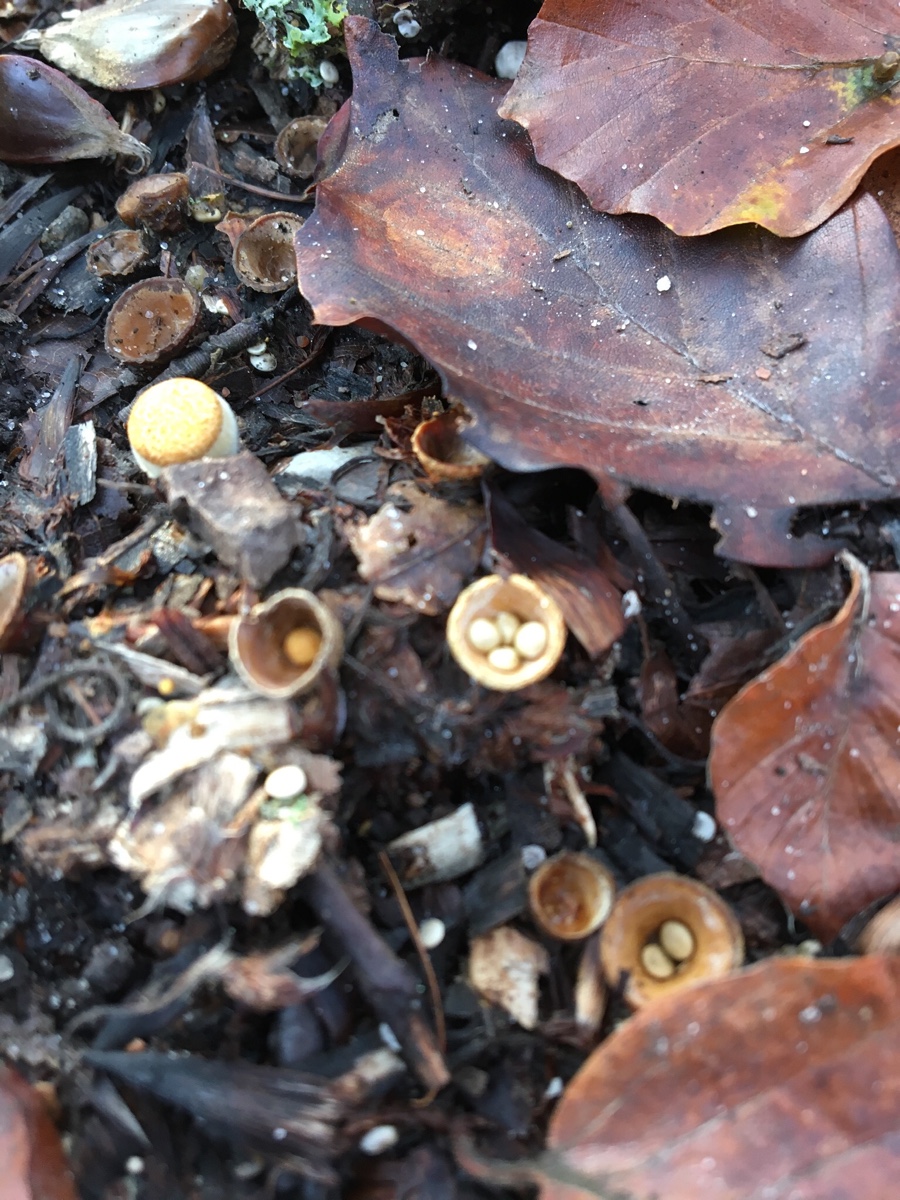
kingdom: Fungi
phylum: Basidiomycota
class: Agaricomycetes
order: Agaricales
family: Nidulariaceae
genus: Crucibulum
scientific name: Crucibulum crucibuliforme
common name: krukkesvamp
